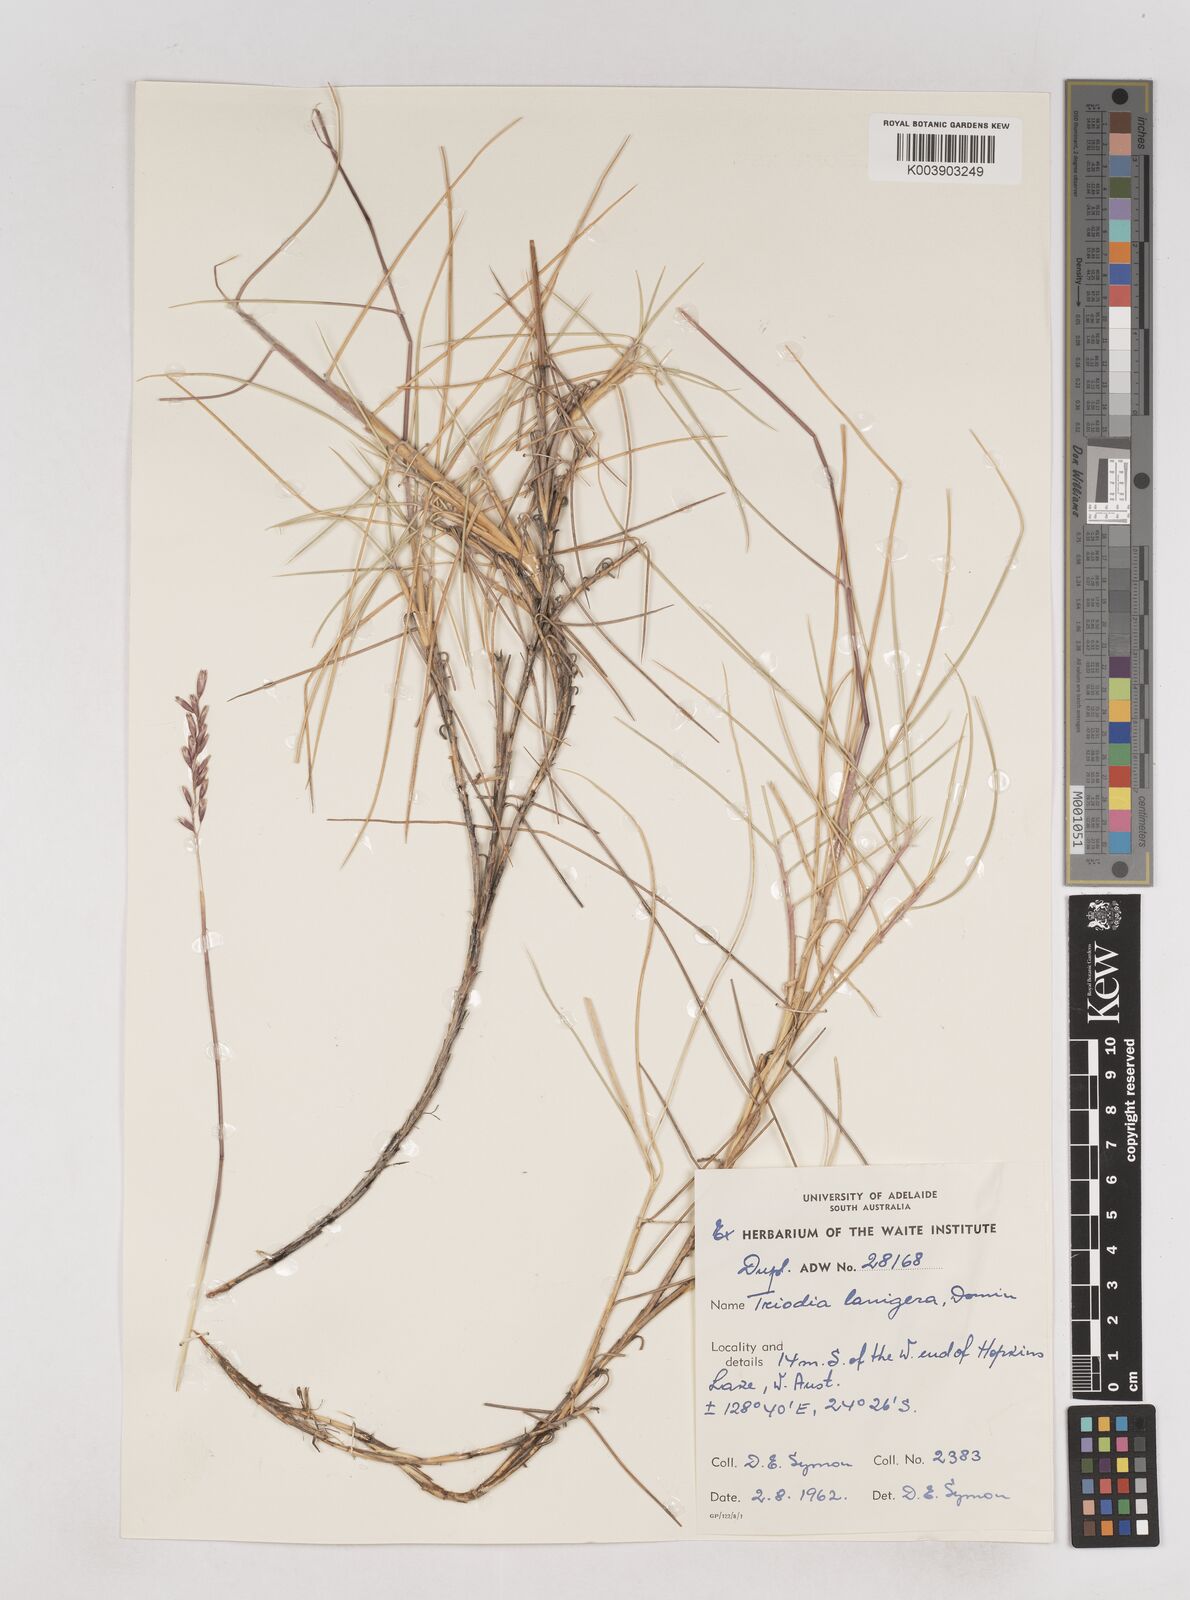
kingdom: Plantae
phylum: Tracheophyta
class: Liliopsida
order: Poales
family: Poaceae
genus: Triodia
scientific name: Triodia lanigera
